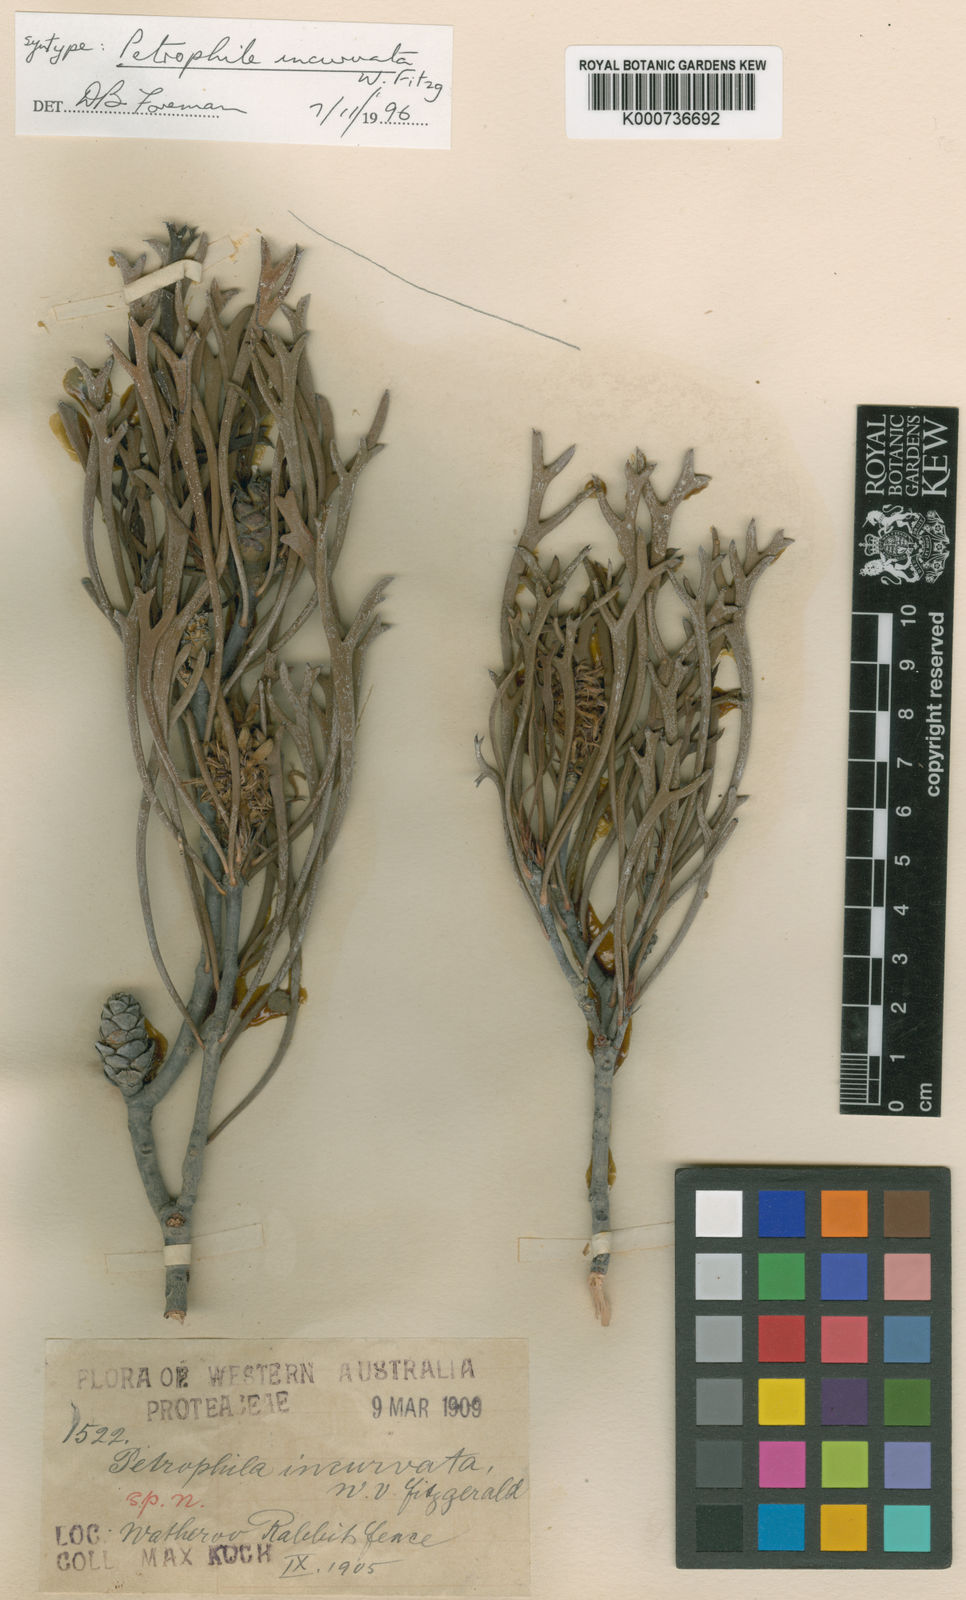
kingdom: Plantae
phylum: Tracheophyta
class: Magnoliopsida
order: Proteales
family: Proteaceae
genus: Petrophile
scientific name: Petrophile incurvata
